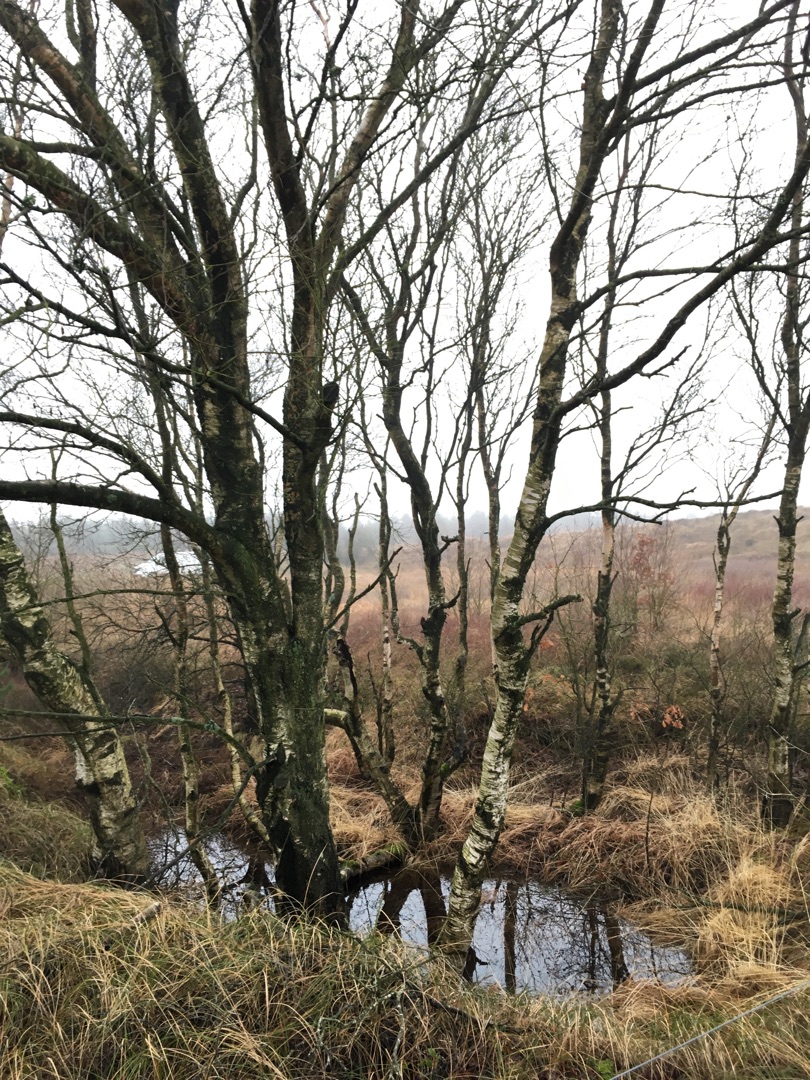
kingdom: Plantae
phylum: Tracheophyta
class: Magnoliopsida
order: Fagales
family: Betulaceae
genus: Betula
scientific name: Betula pubescens
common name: Dun-birk
